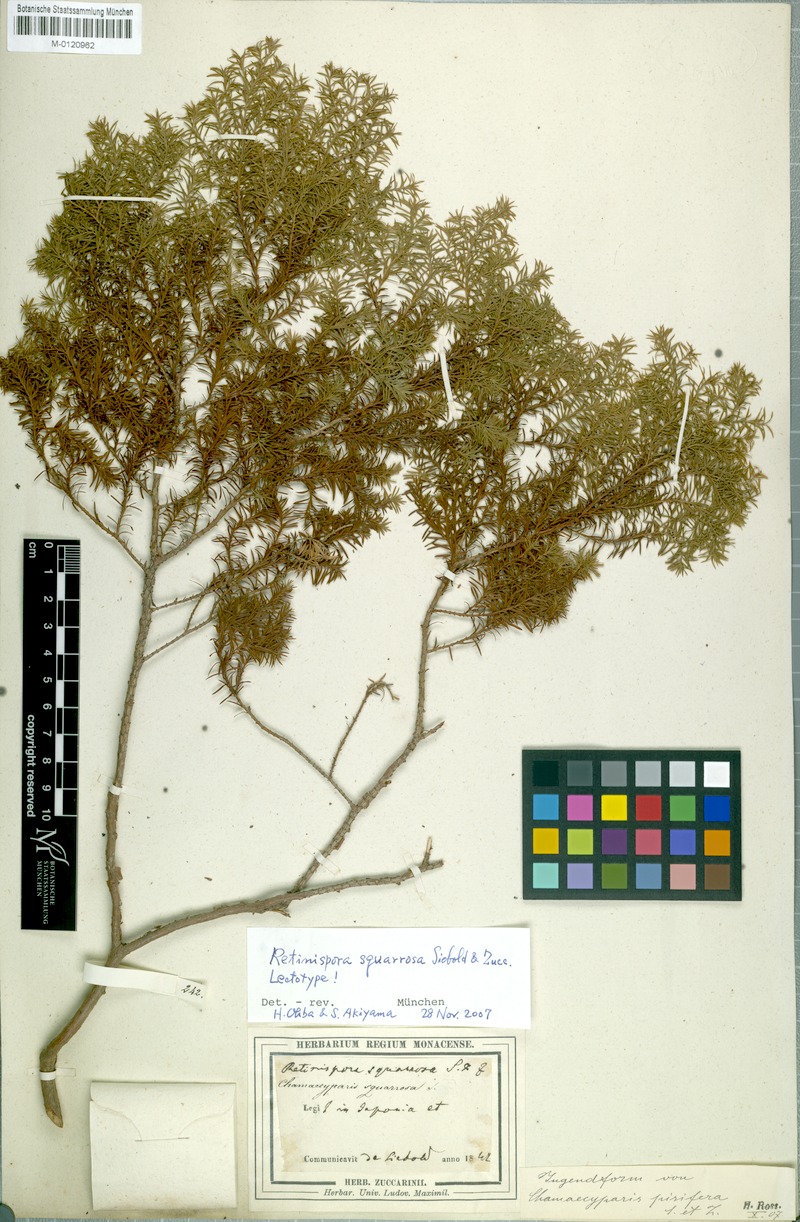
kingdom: Plantae
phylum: Tracheophyta
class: Pinopsida
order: Pinales
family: Cupressaceae
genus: Chamaecyparis
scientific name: Chamaecyparis pisifera
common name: Sawara cypress
